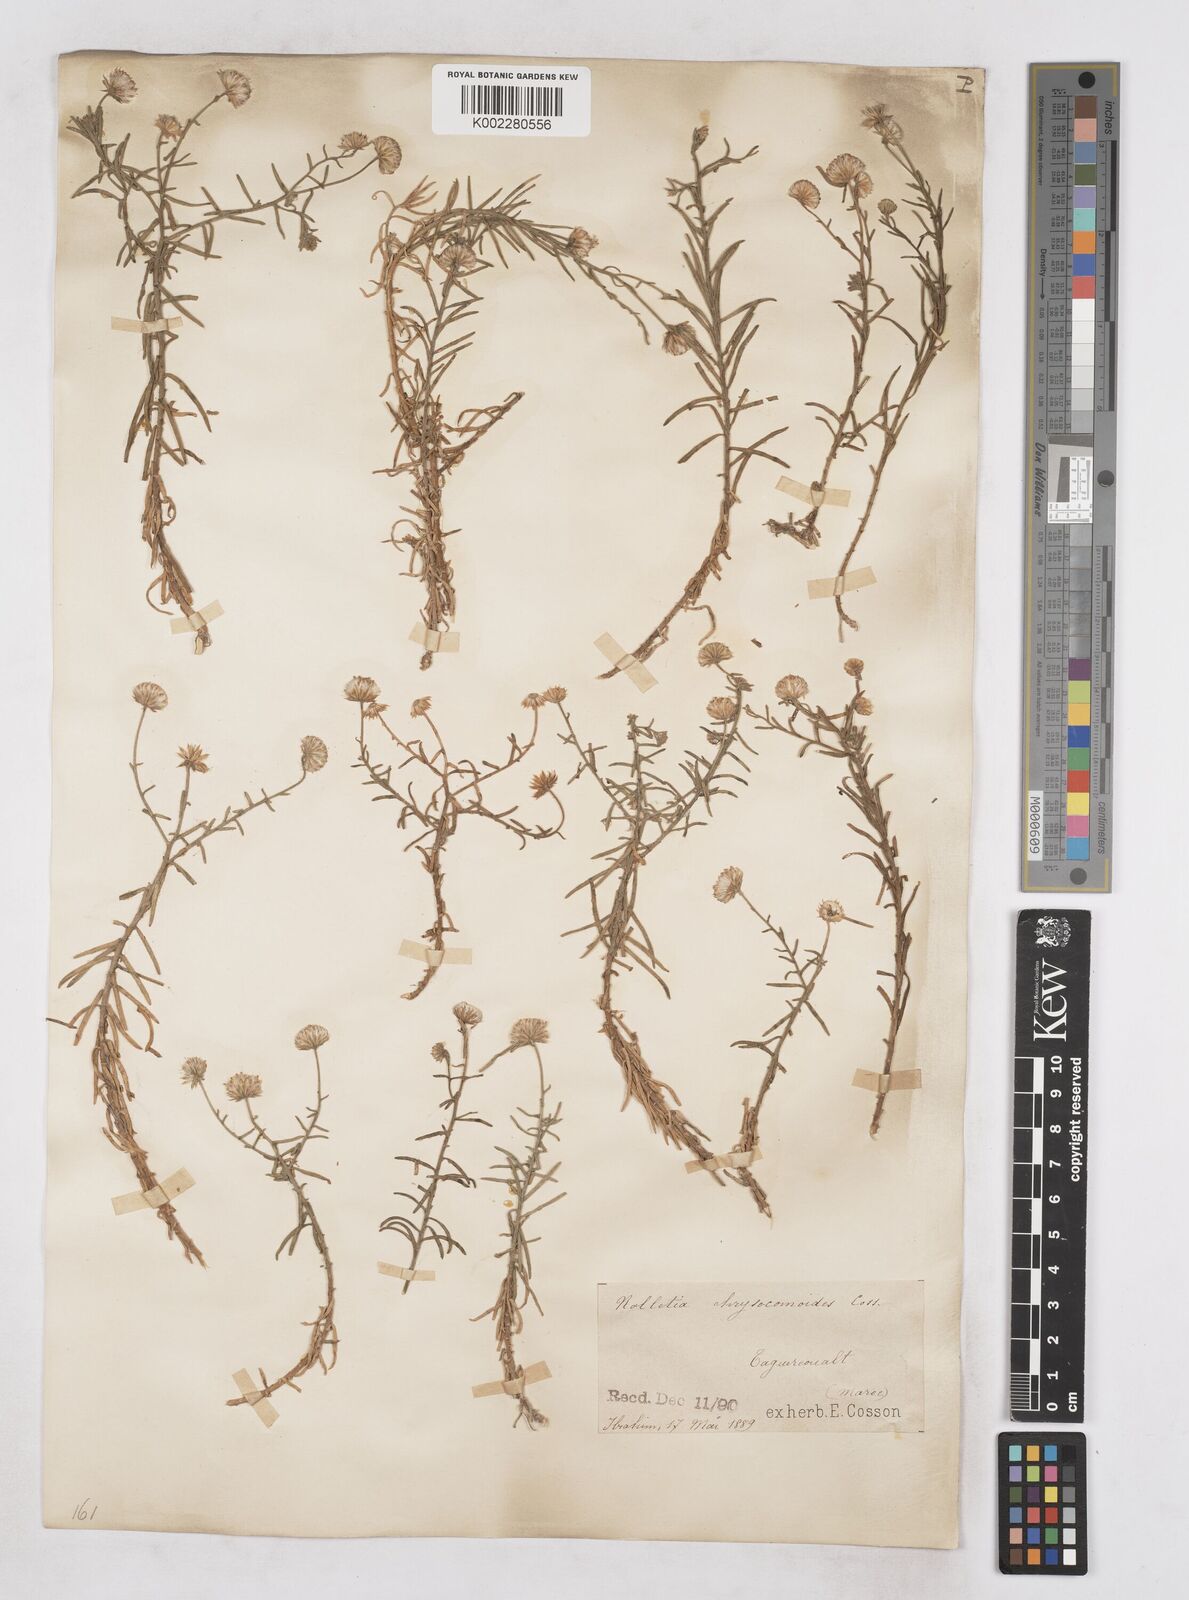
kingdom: Plantae
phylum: Tracheophyta
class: Magnoliopsida
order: Asterales
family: Asteraceae
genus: Nolletia
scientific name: Nolletia chrysocomoides
